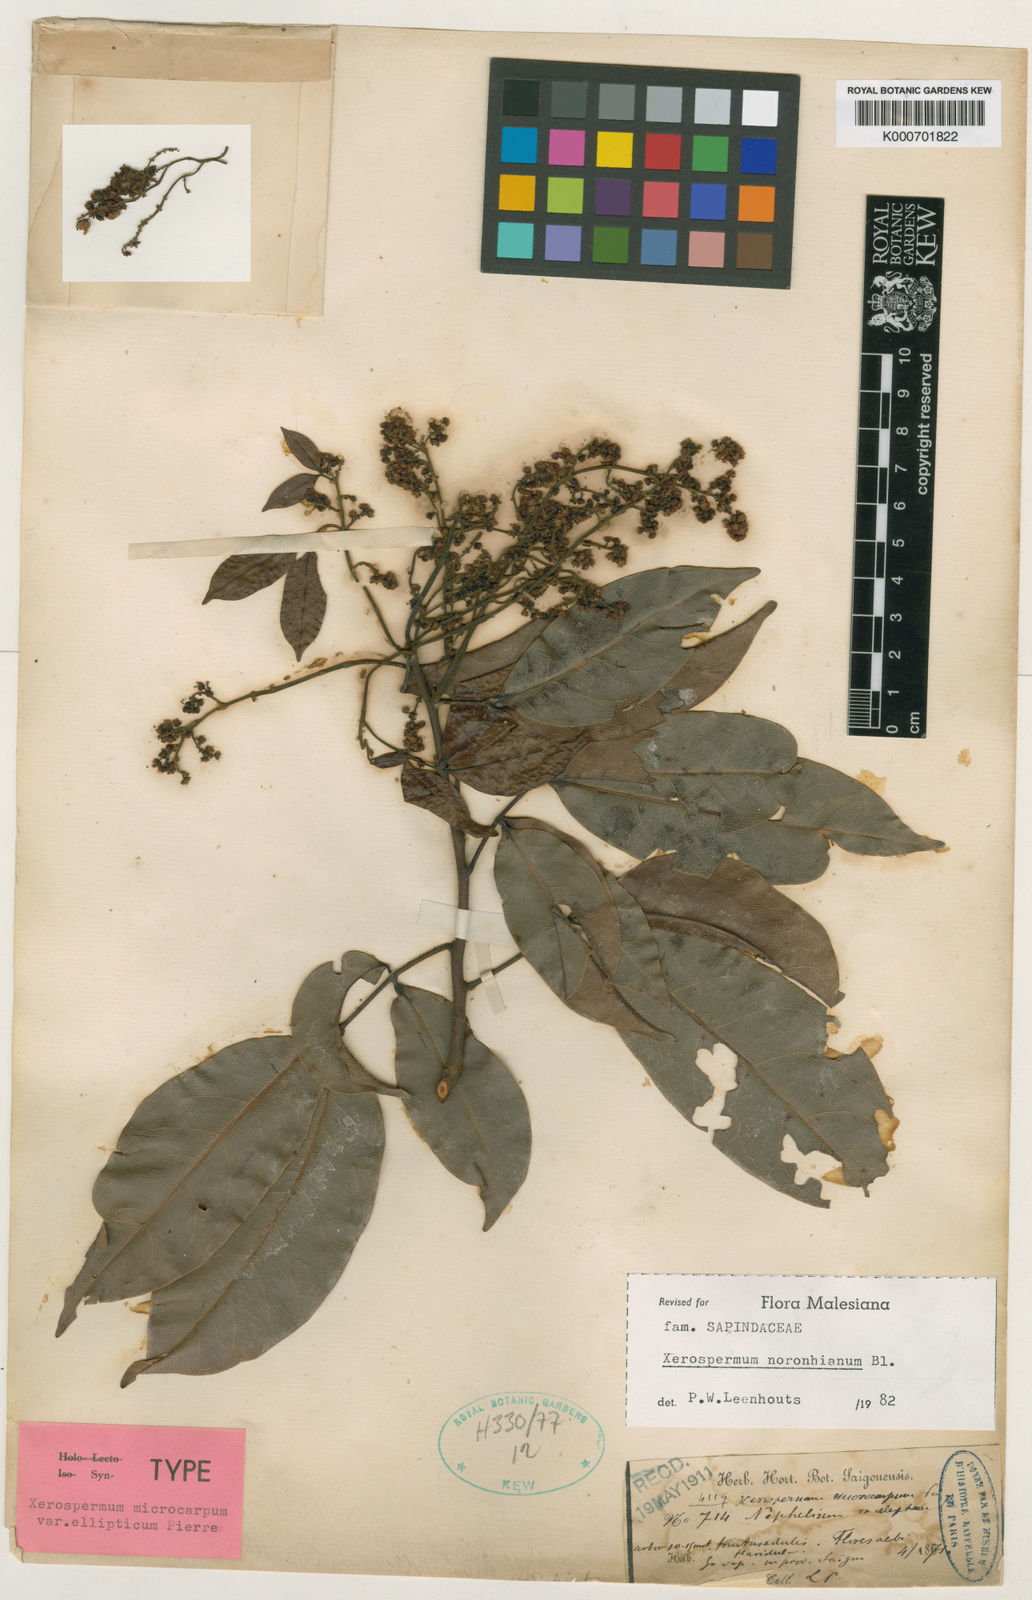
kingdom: Plantae
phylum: Tracheophyta
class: Magnoliopsida
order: Sapindales
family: Sapindaceae
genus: Xerospermum
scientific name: Xerospermum noronhianum
